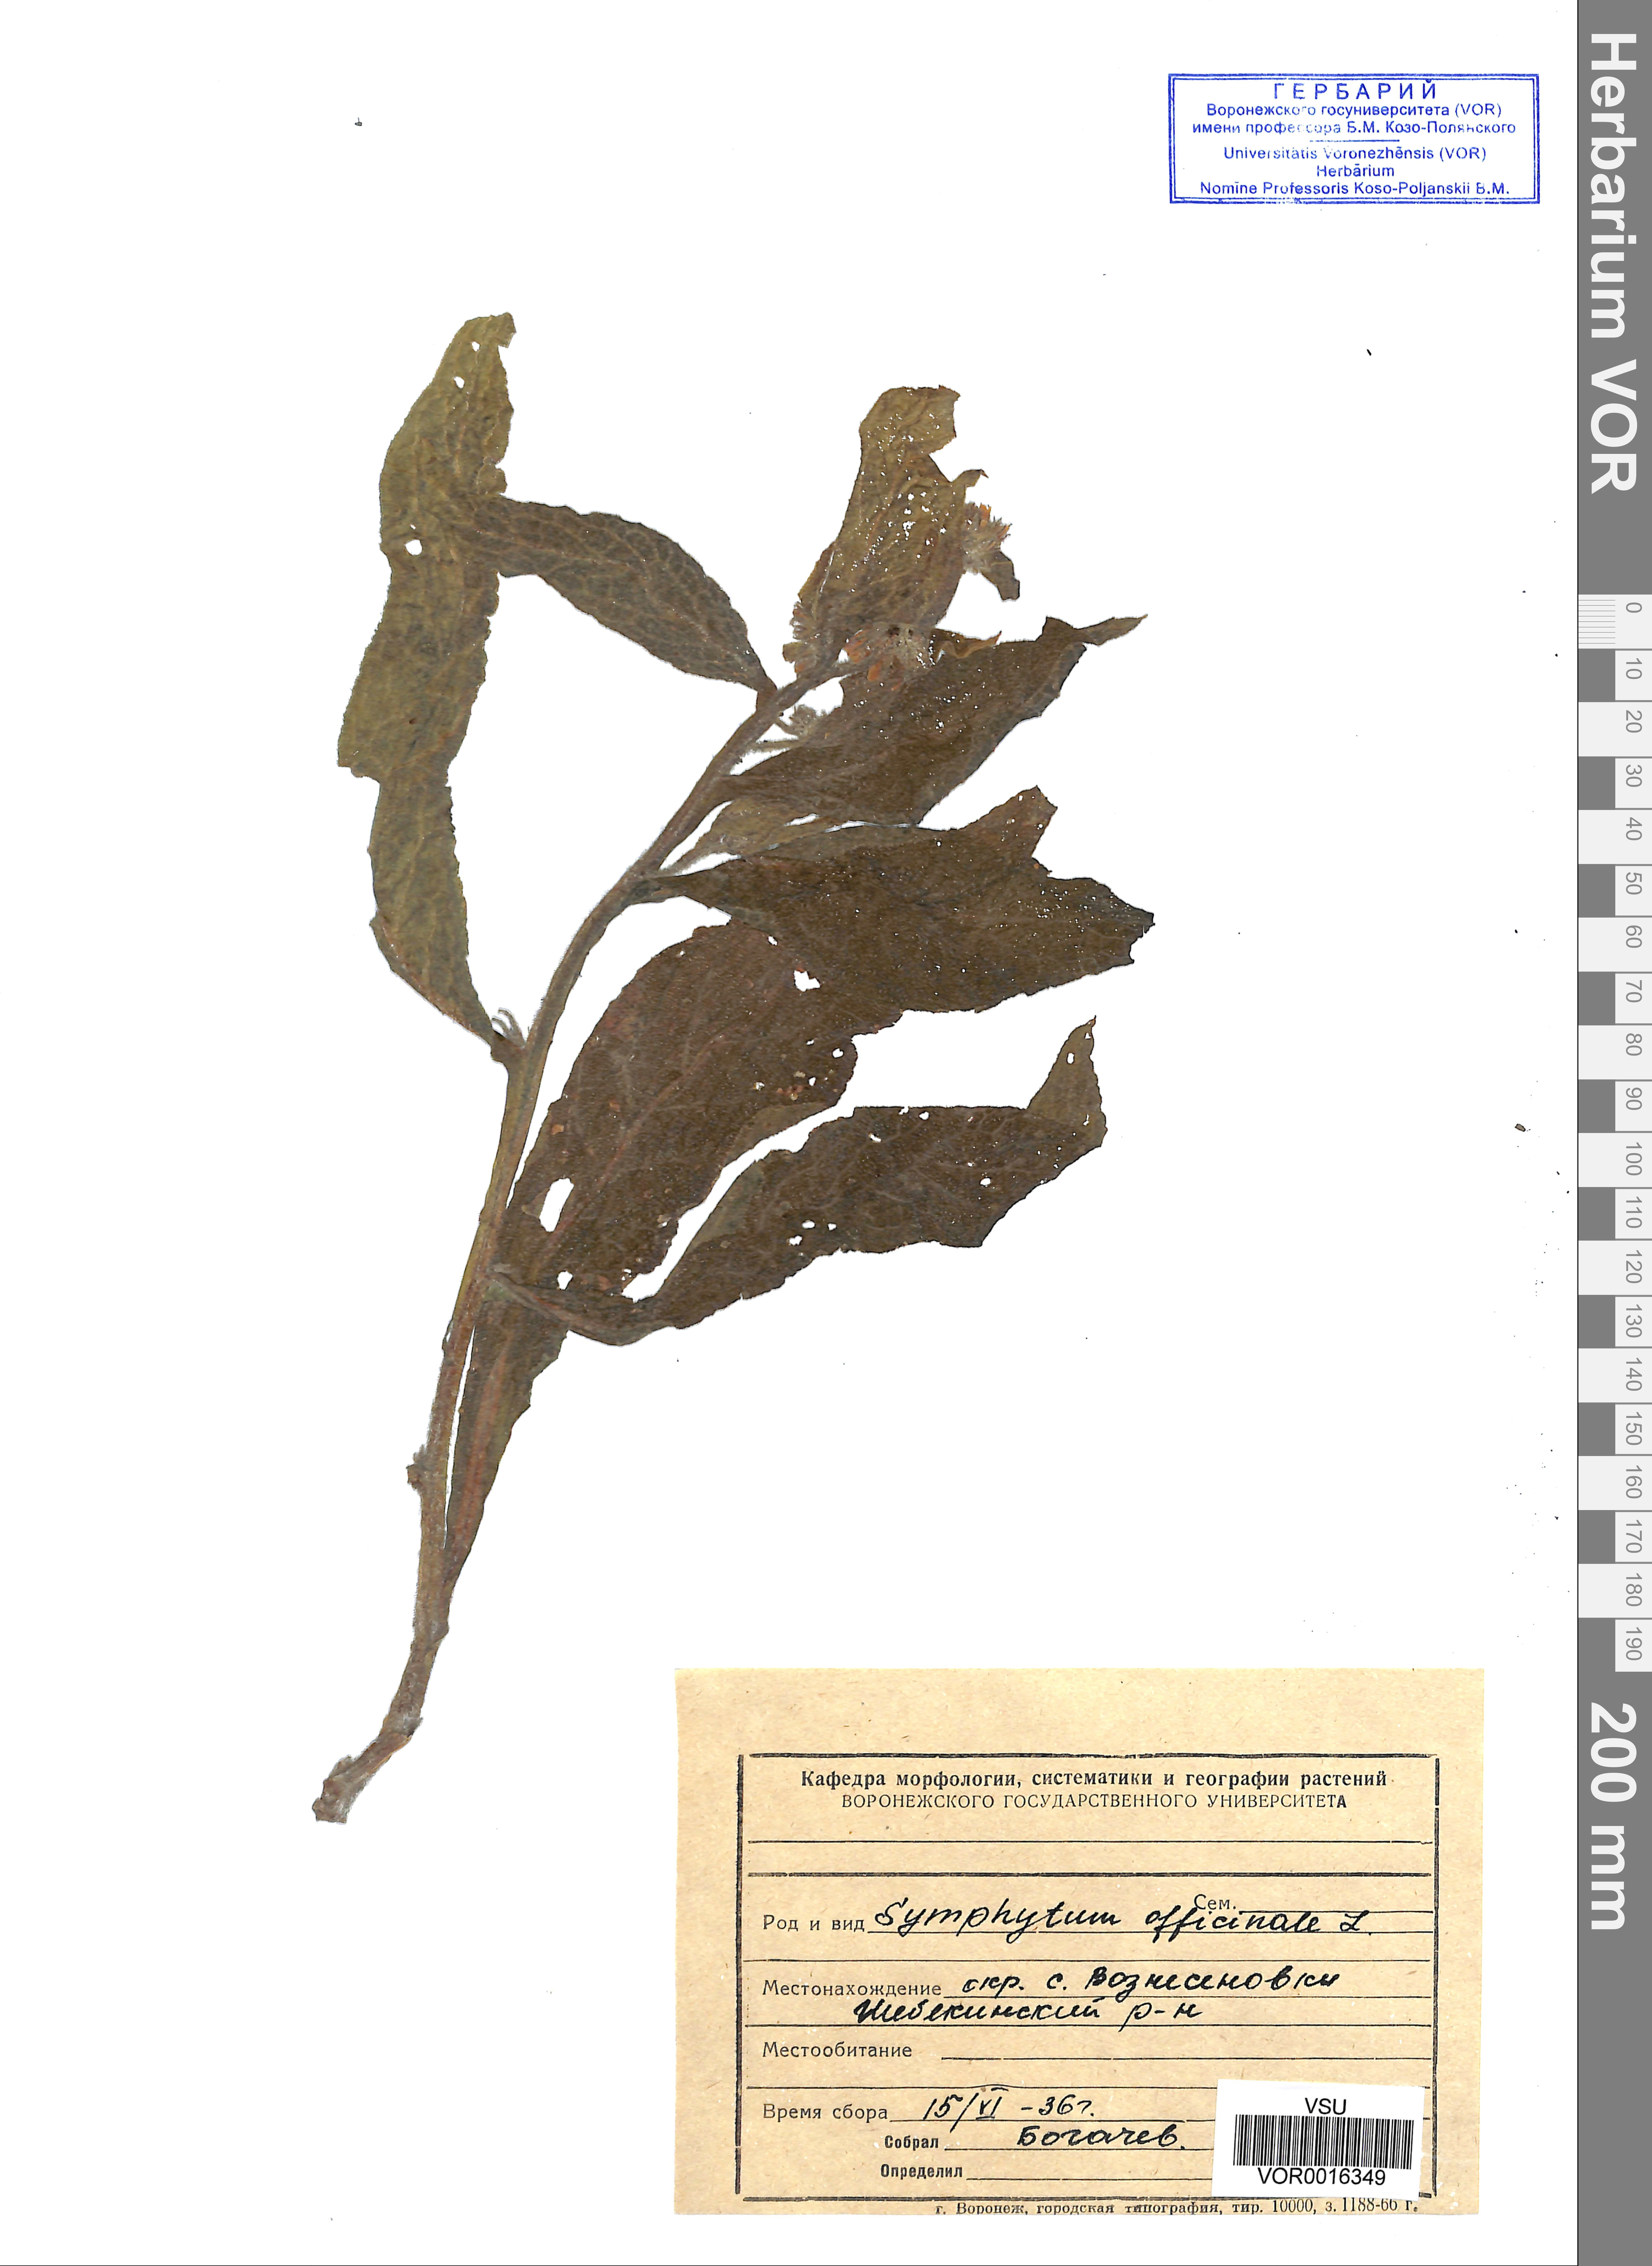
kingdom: Plantae
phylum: Tracheophyta
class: Magnoliopsida
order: Boraginales
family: Boraginaceae
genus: Symphytum
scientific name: Symphytum officinale
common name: Common comfrey
